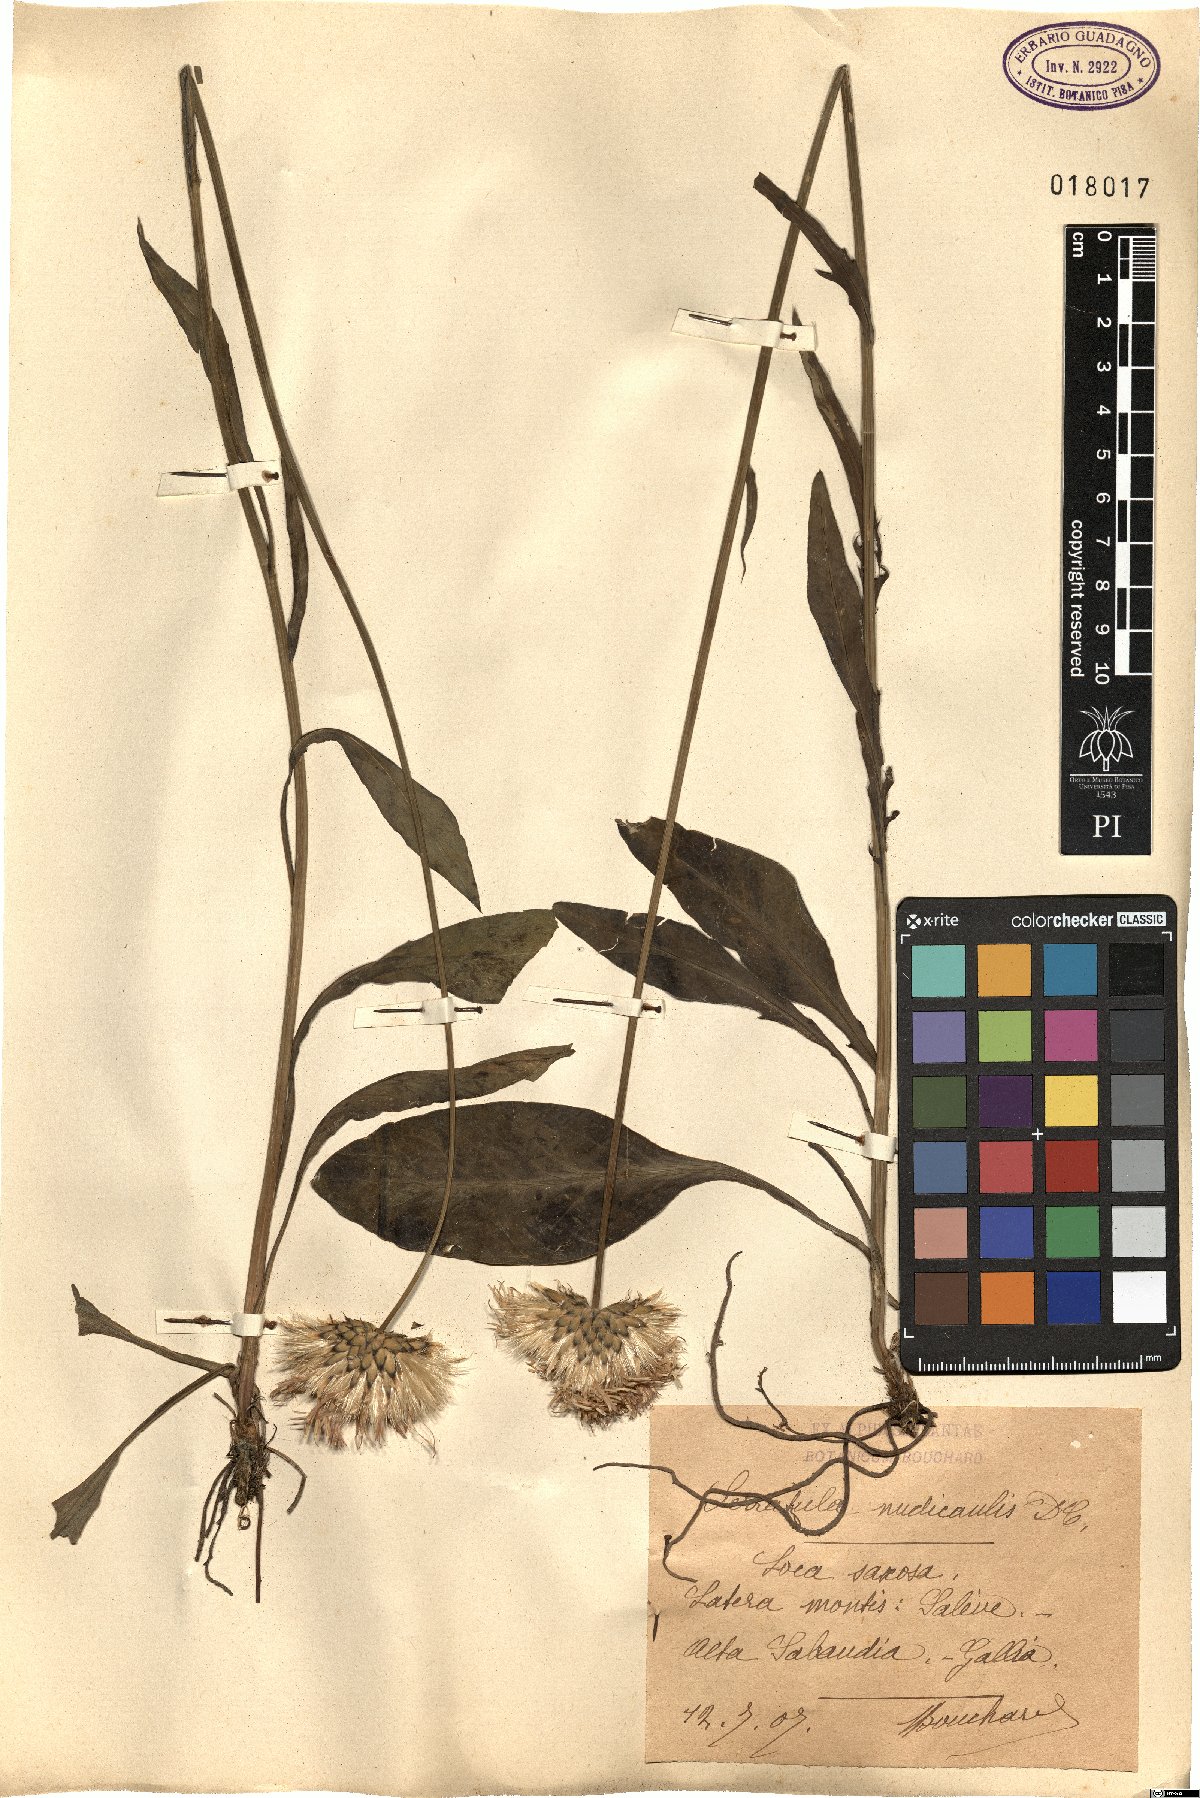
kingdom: Plantae
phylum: Tracheophyta
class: Magnoliopsida
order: Asterales
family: Asteraceae
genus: Klasea
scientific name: Klasea nudicaulis
